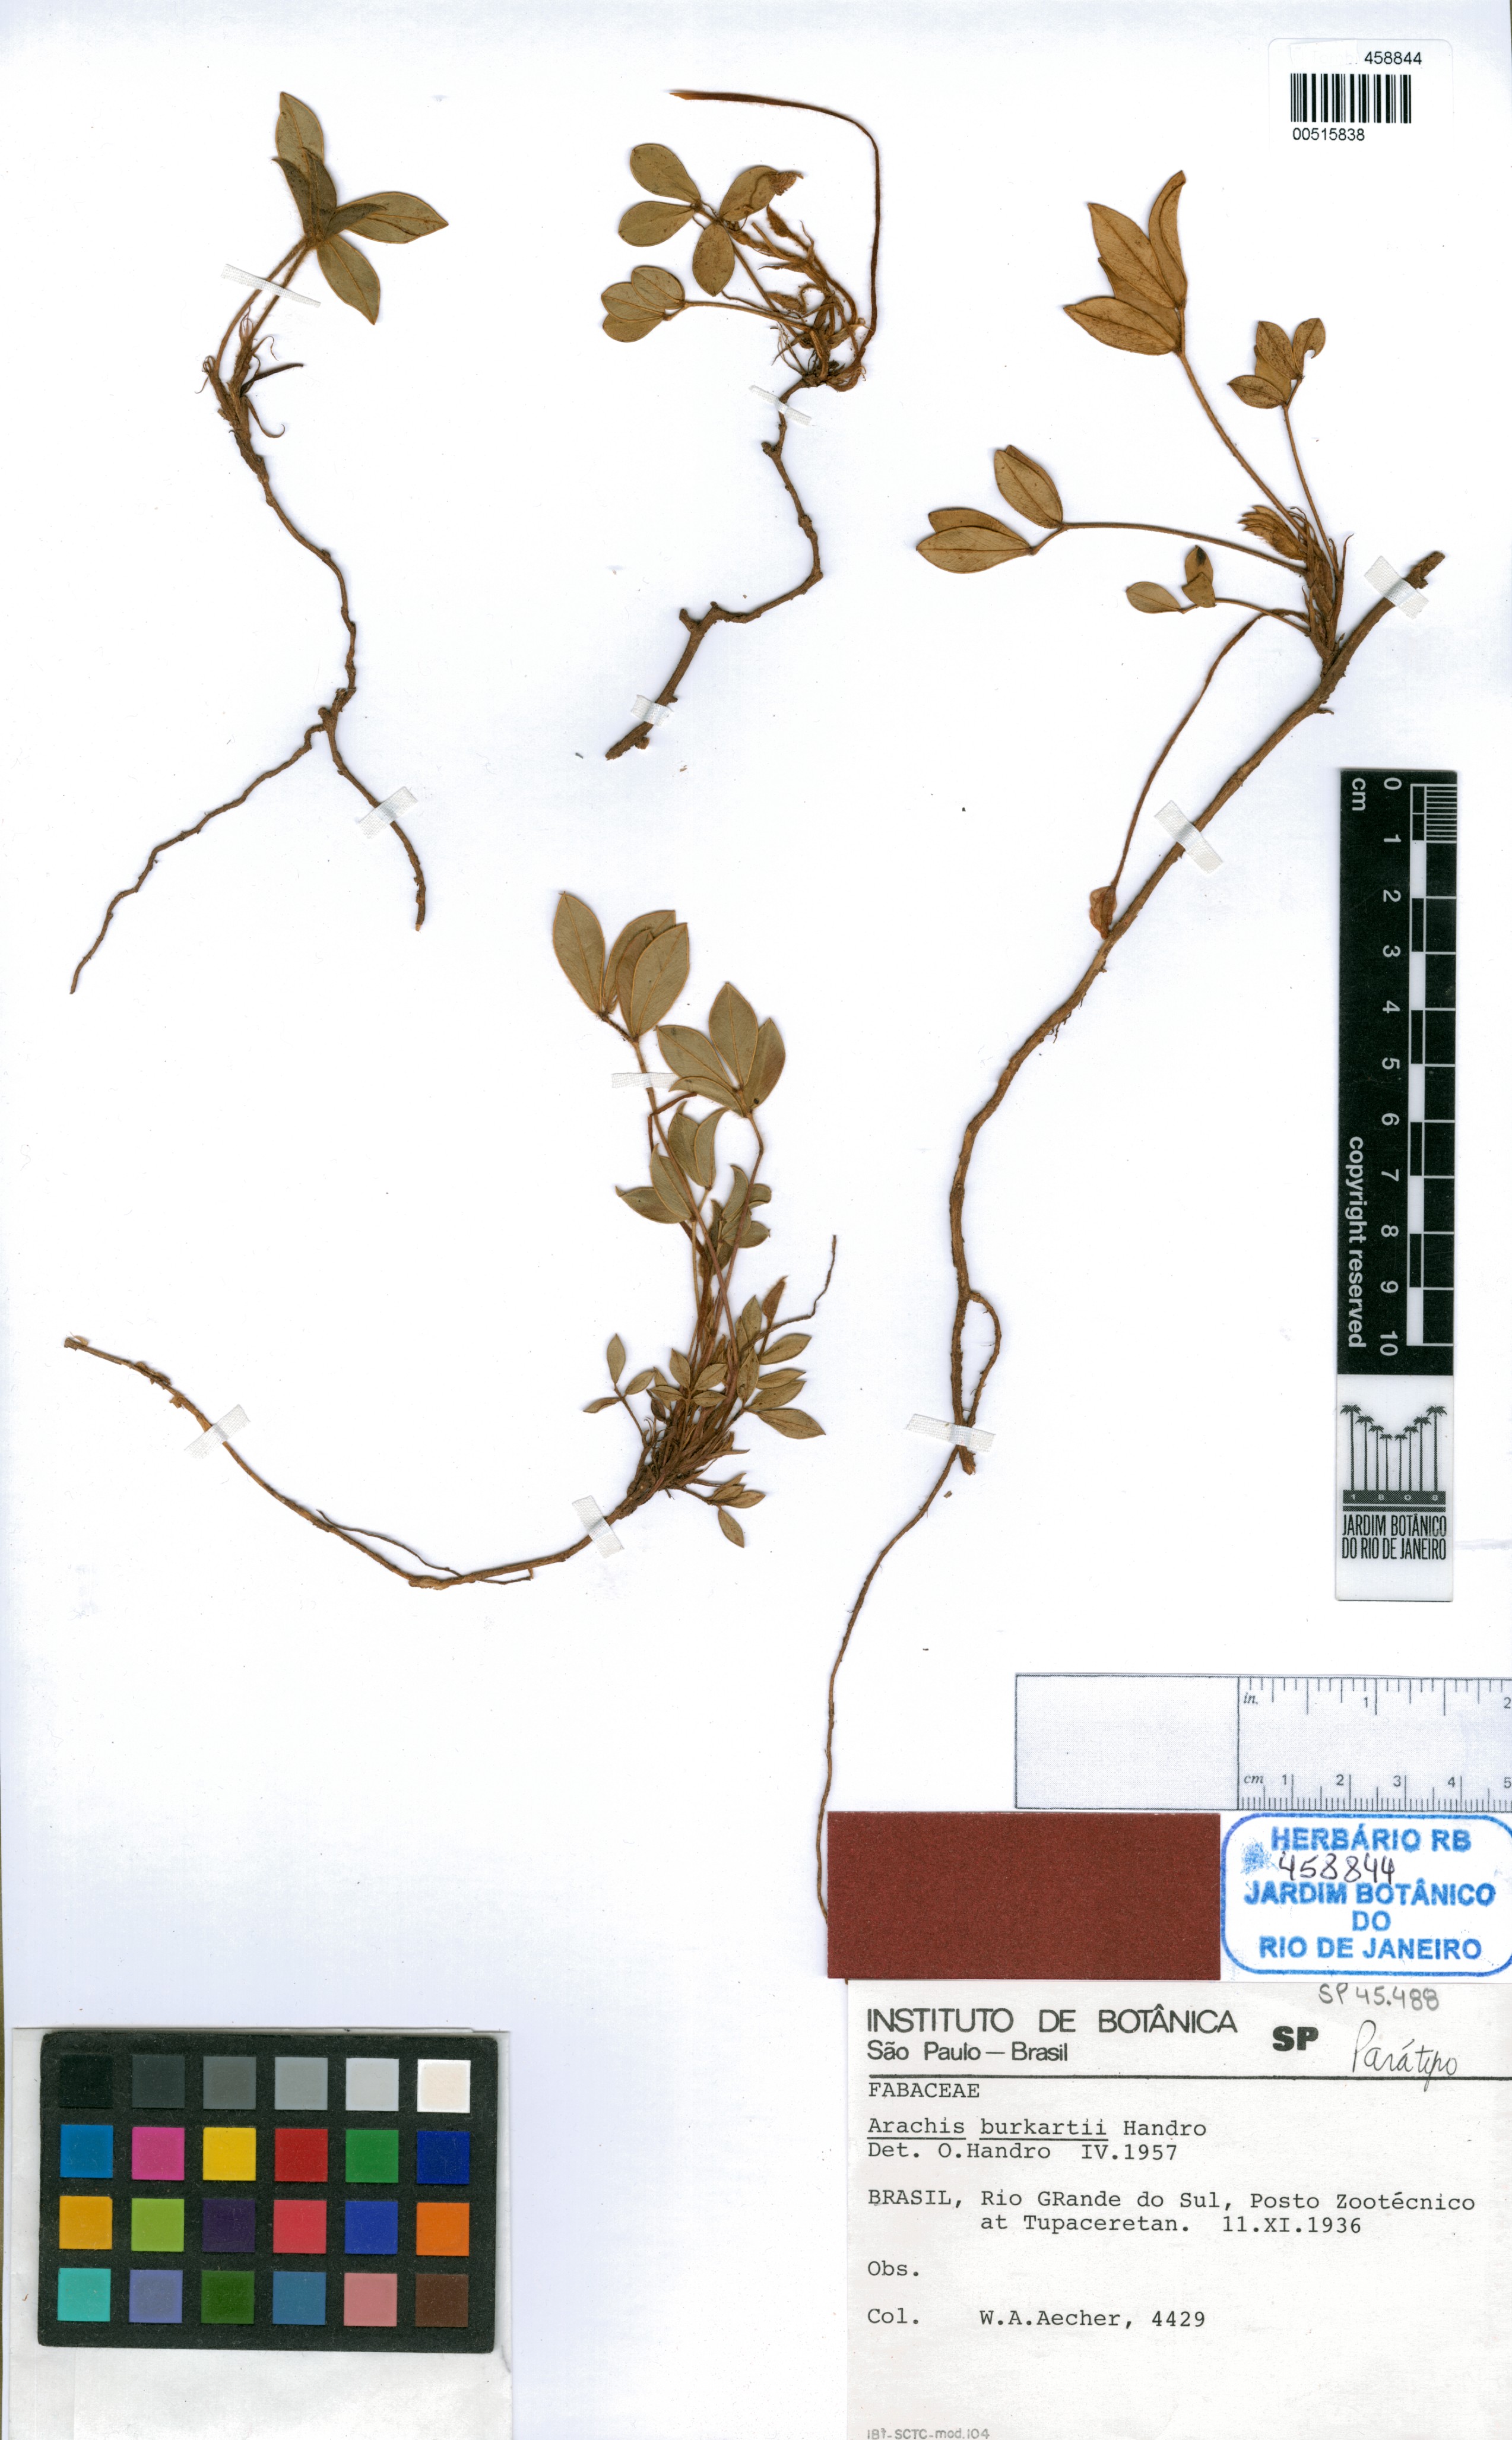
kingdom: Plantae
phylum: Tracheophyta
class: Magnoliopsida
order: Fabales
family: Fabaceae
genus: Arachis
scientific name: Arachis burkartii
